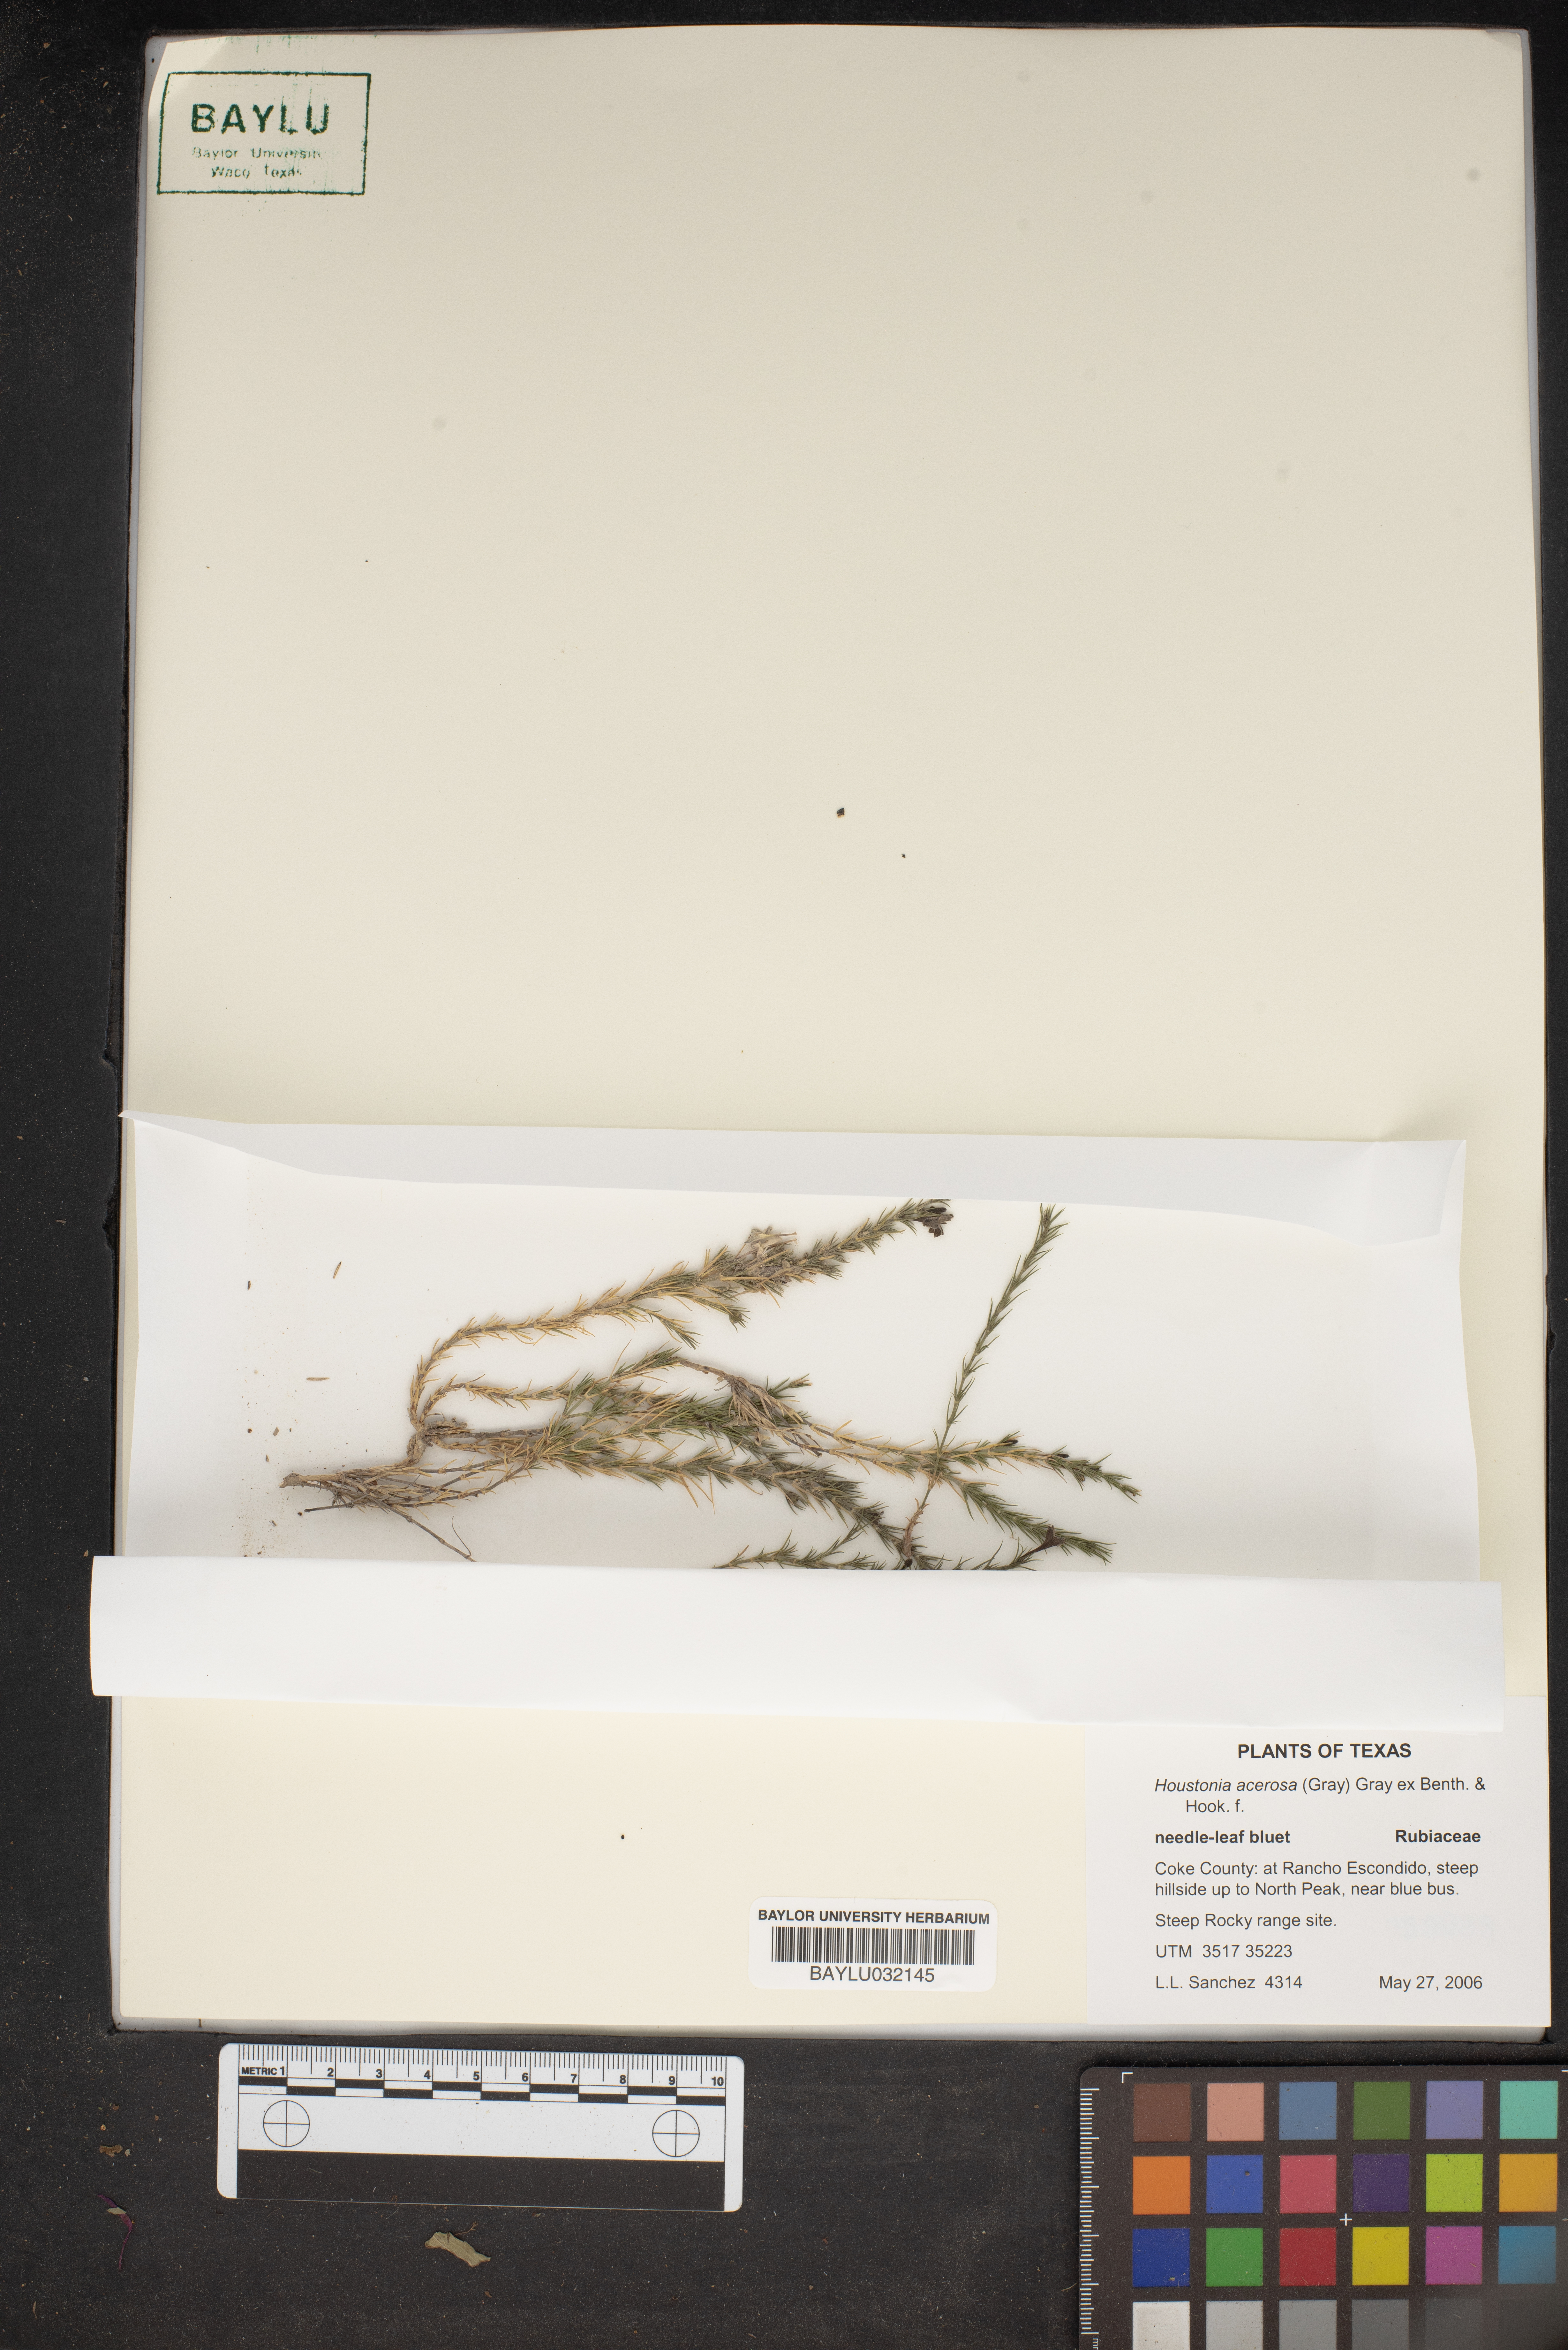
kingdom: Plantae
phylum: Tracheophyta
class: Magnoliopsida
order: Gentianales
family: Rubiaceae
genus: Houstonia
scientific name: Houstonia acerosa
